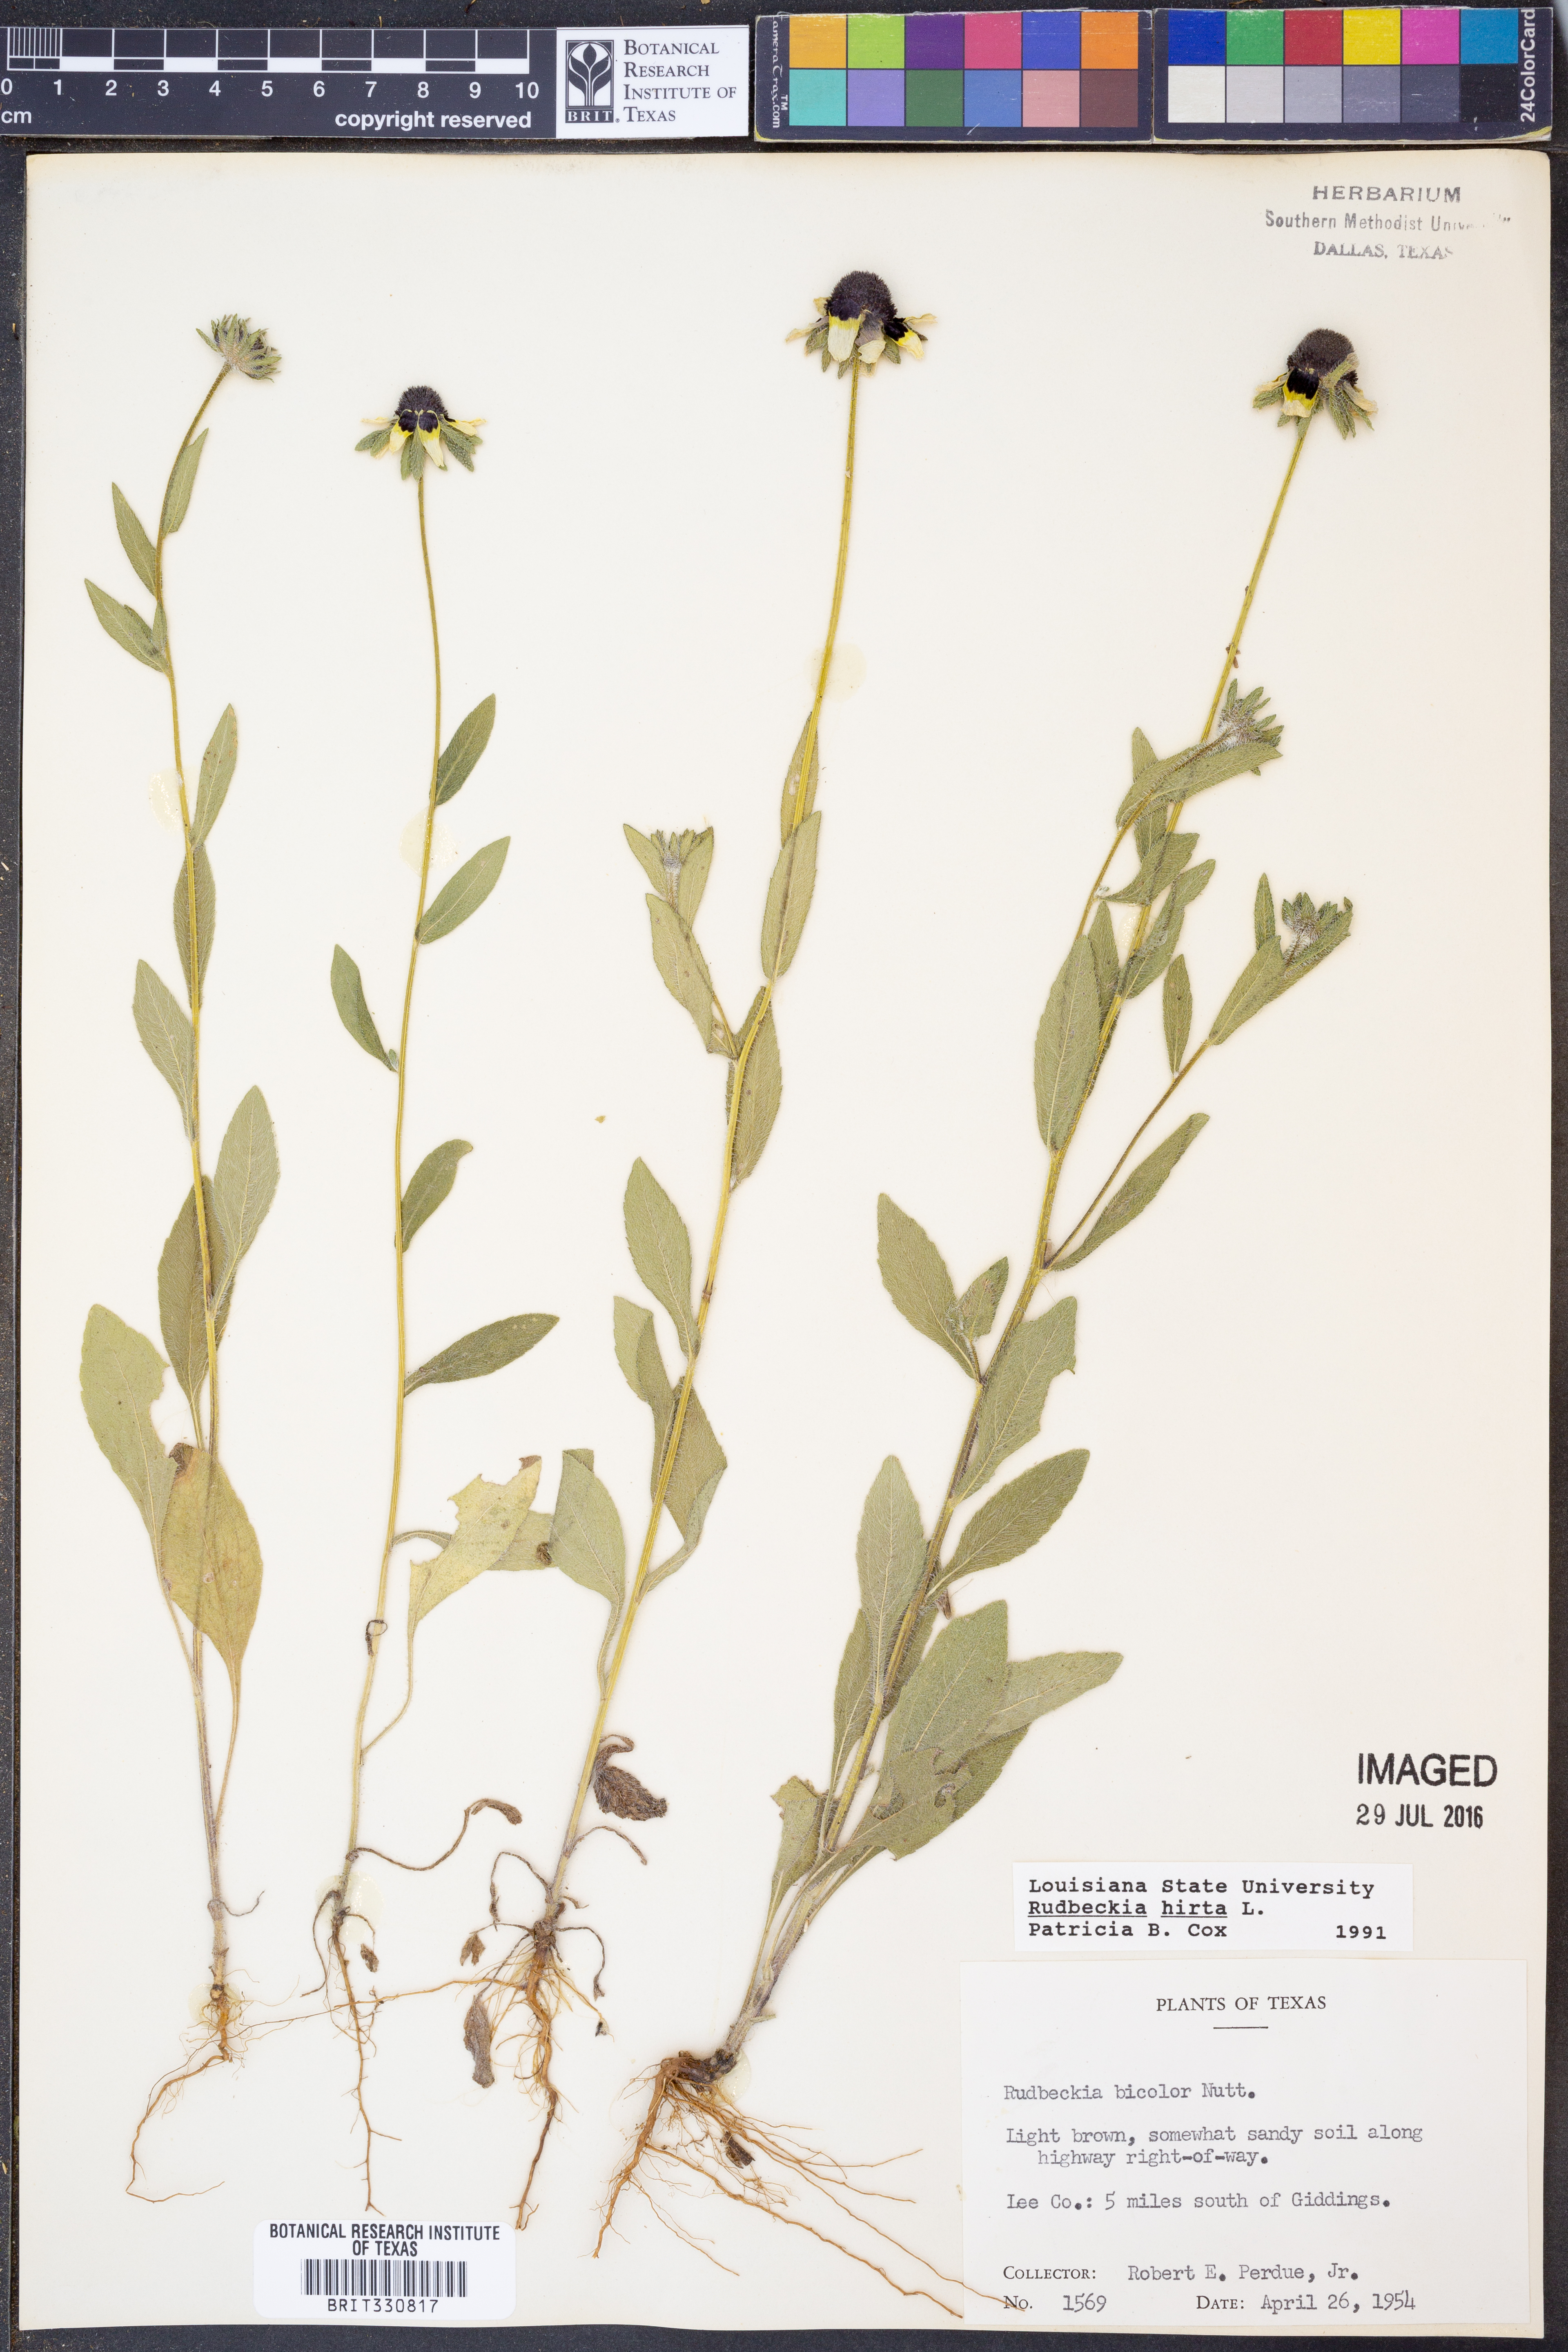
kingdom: Plantae
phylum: Tracheophyta
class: Magnoliopsida
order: Asterales
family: Asteraceae
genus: Rudbeckia
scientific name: Rudbeckia hirta
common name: Black-eyed-susan
